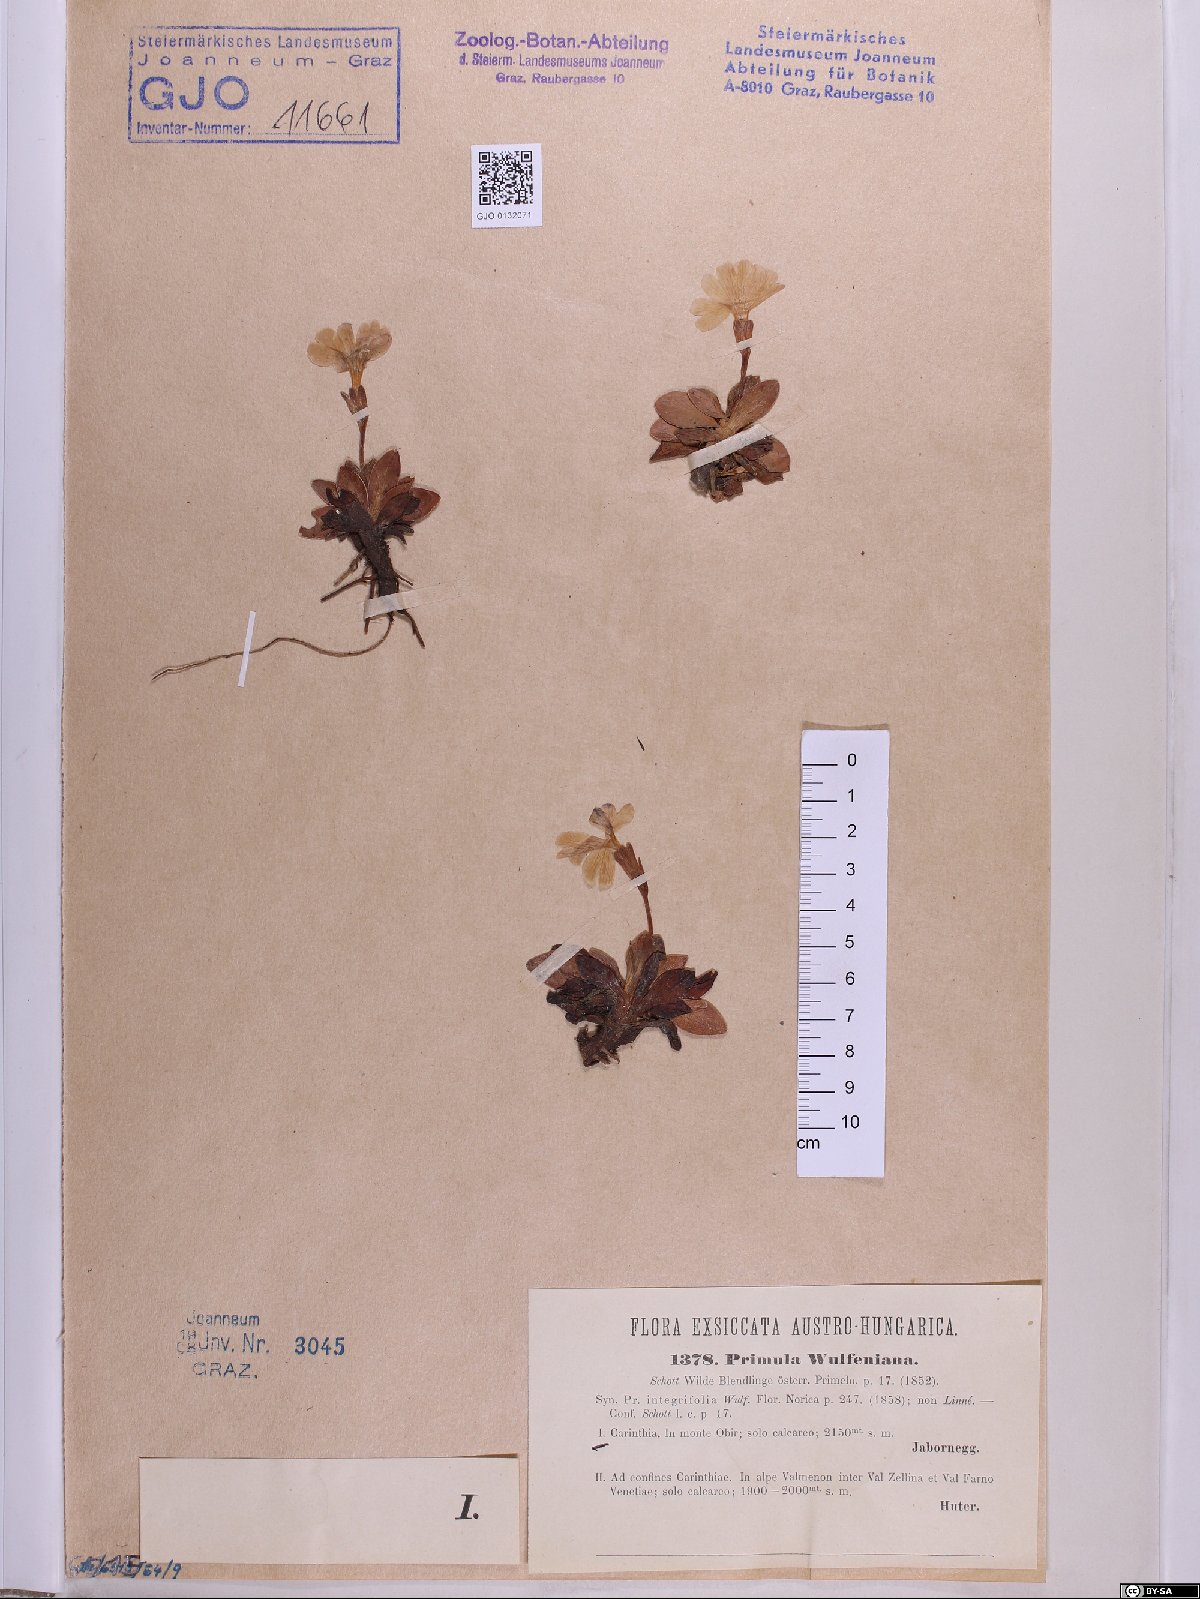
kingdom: Plantae
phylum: Tracheophyta
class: Magnoliopsida
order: Ericales
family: Primulaceae
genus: Primula
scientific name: Primula wulfeniana
